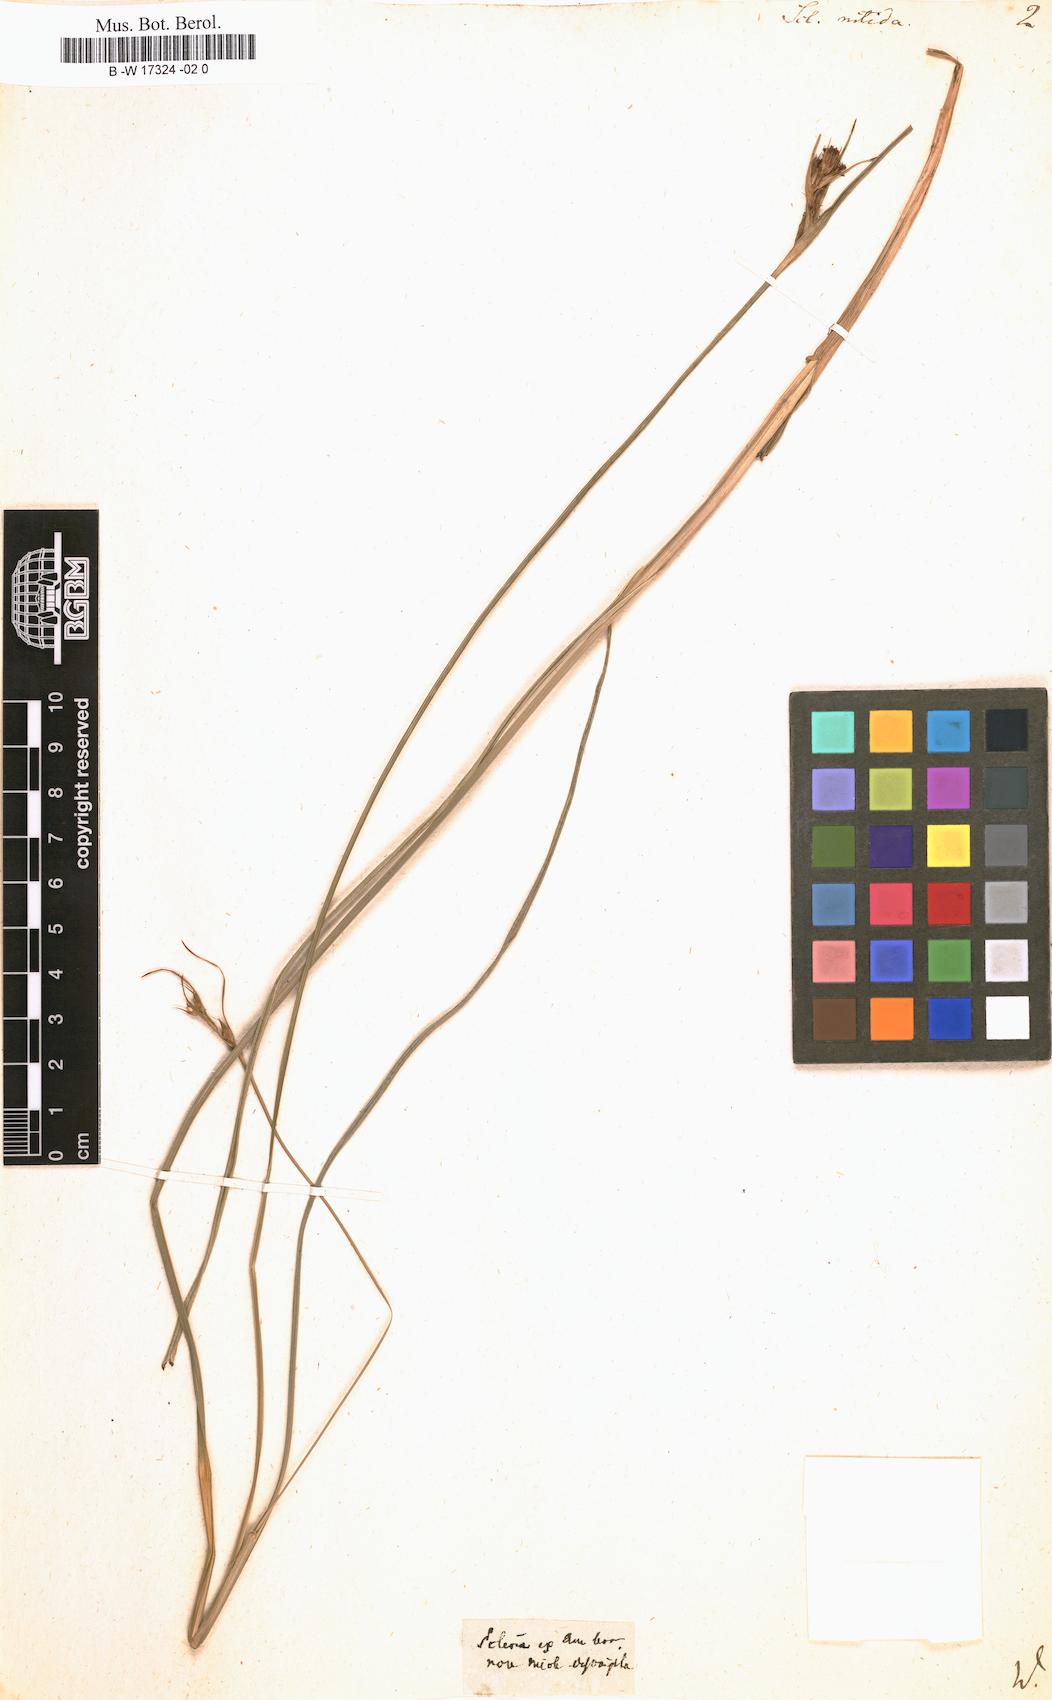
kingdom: Plantae
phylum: Tracheophyta
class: Liliopsida
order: Poales
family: Cyperaceae
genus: Scleria
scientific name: Scleria triglomerata
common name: Whip nutrush
